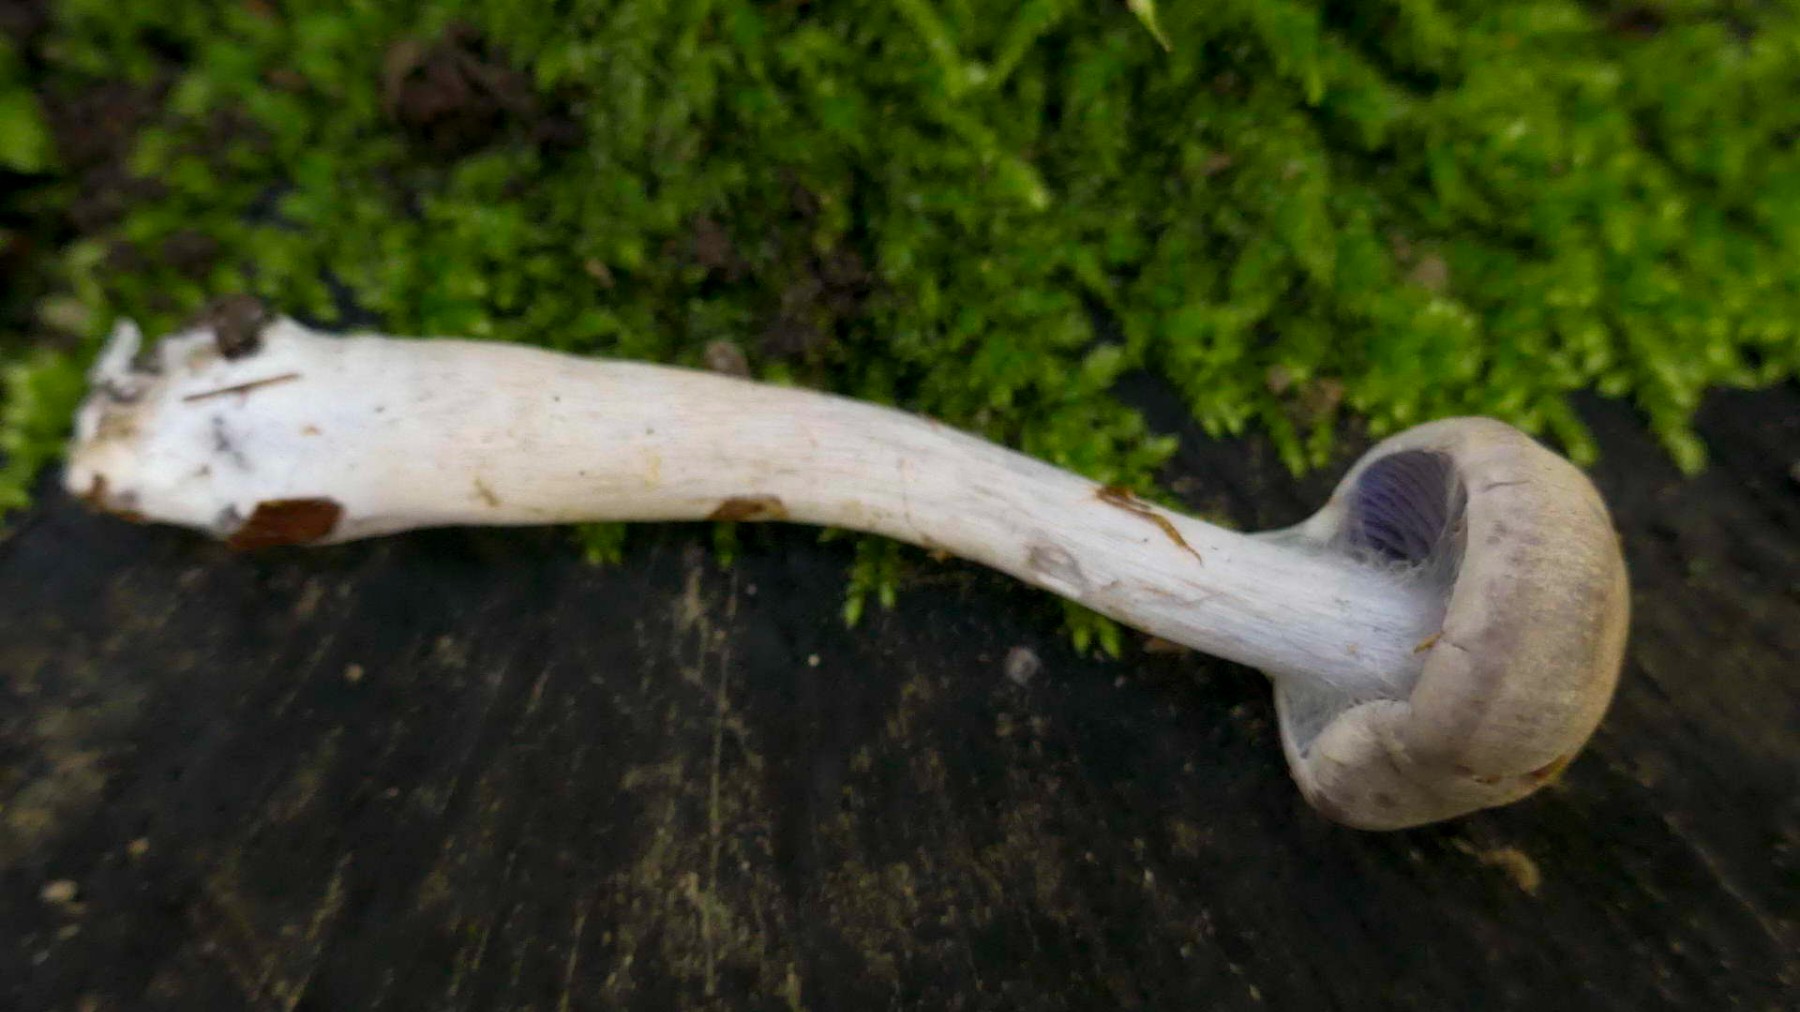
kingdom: Fungi
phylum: Basidiomycota
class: Agaricomycetes
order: Agaricales
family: Cortinariaceae
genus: Cortinarius
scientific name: Cortinarius
